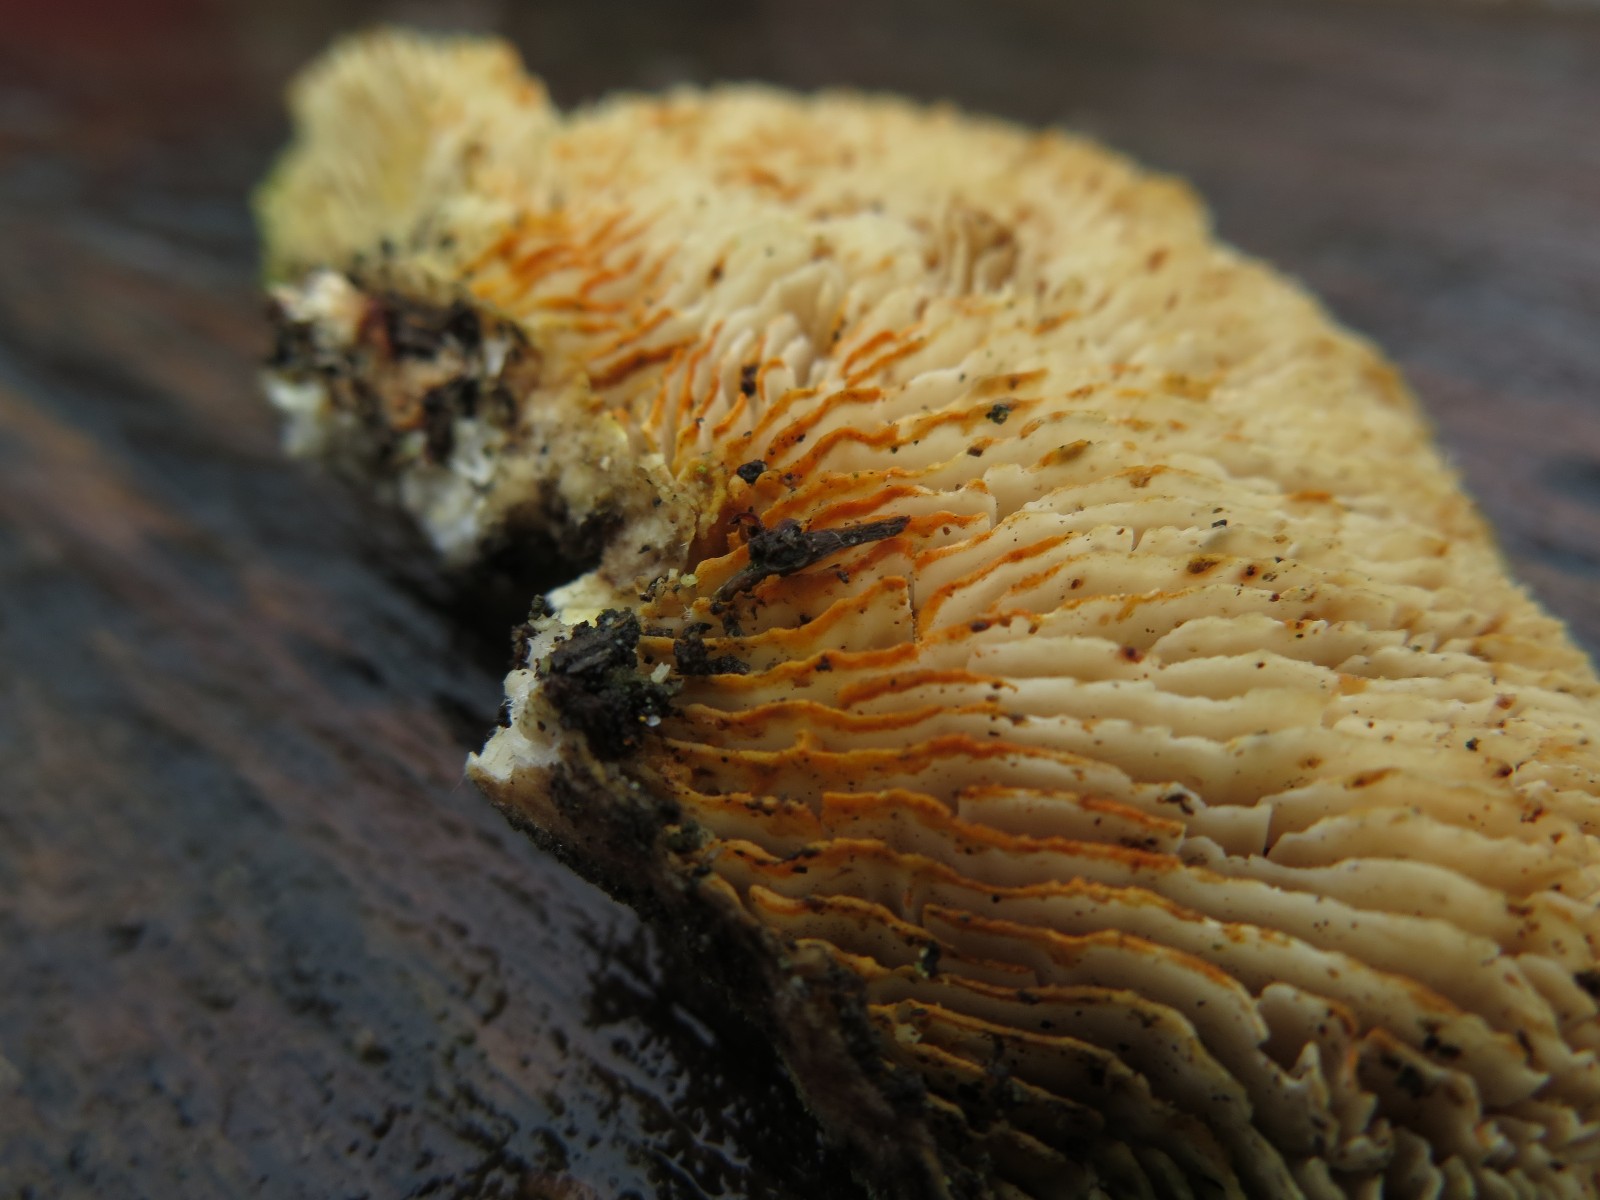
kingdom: Fungi
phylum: Basidiomycota
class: Agaricomycetes
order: Polyporales
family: Polyporaceae
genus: Lenzites
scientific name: Lenzites betulinus
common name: birke-læderporesvamp
